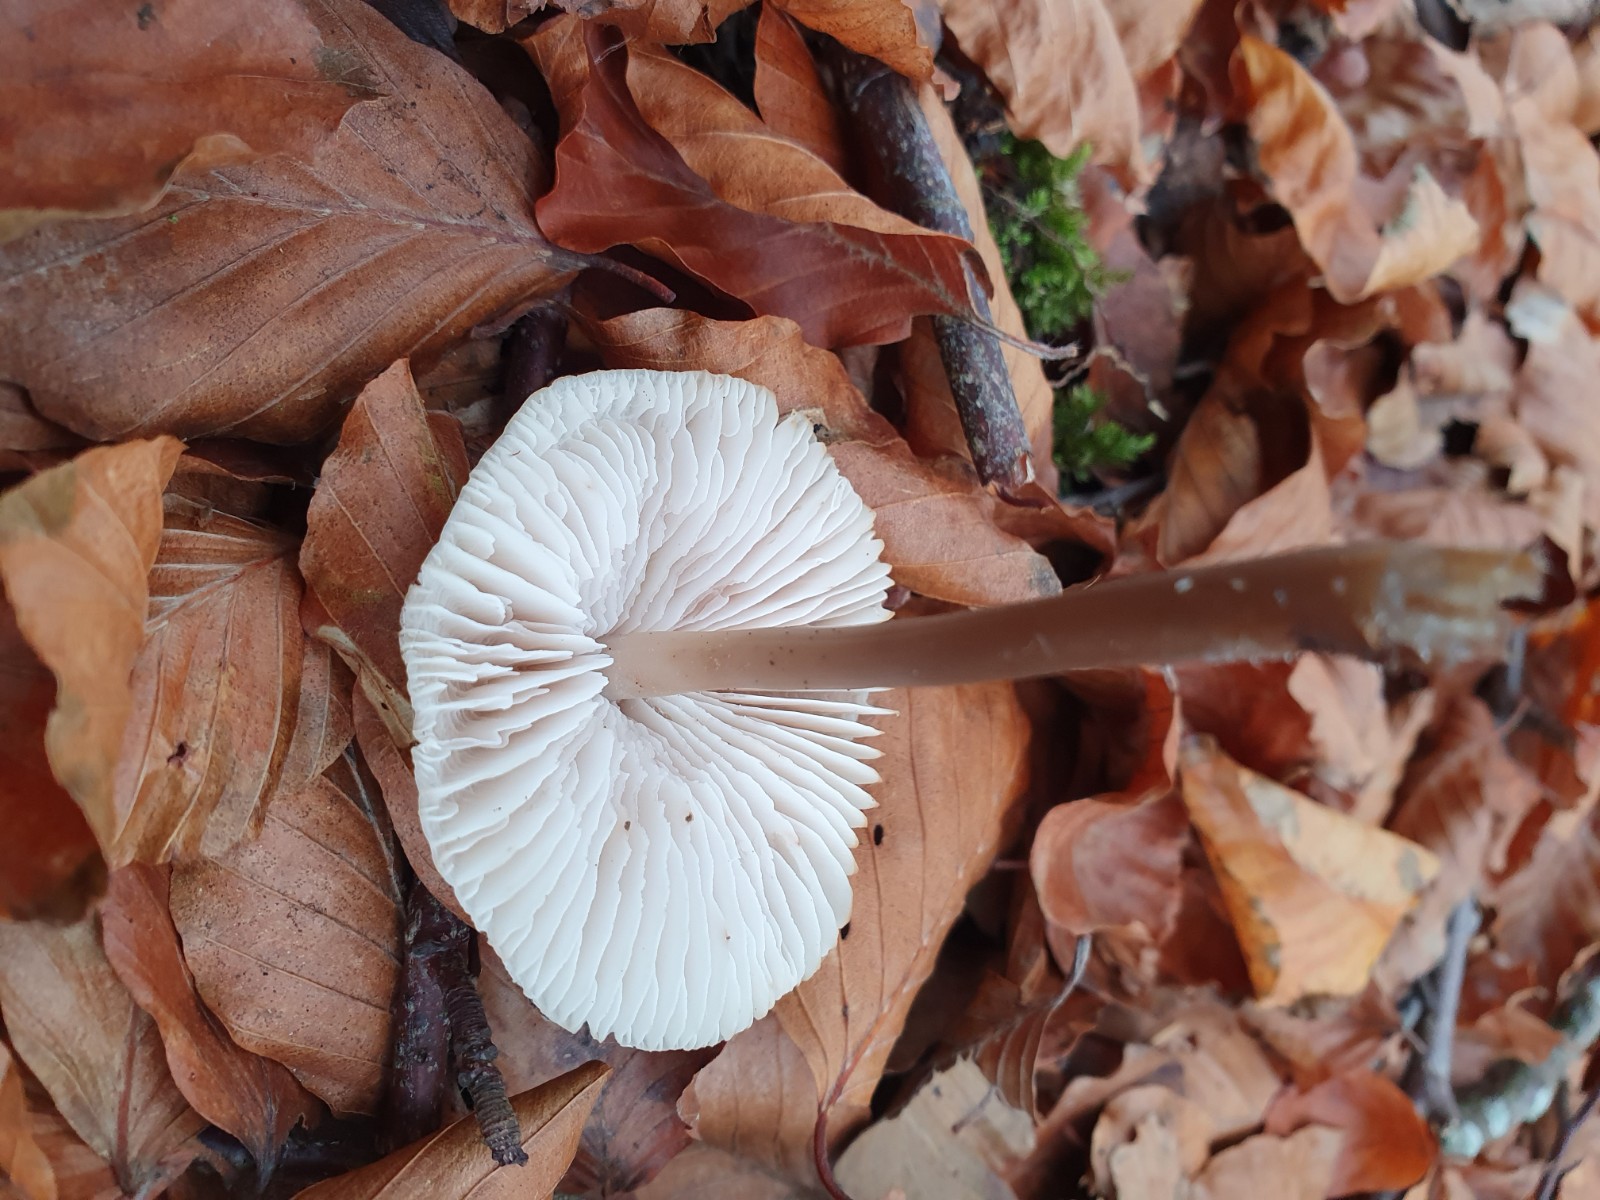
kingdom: Fungi
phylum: Basidiomycota
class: Agaricomycetes
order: Agaricales
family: Mycenaceae
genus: Mycena
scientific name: Mycena galericulata
